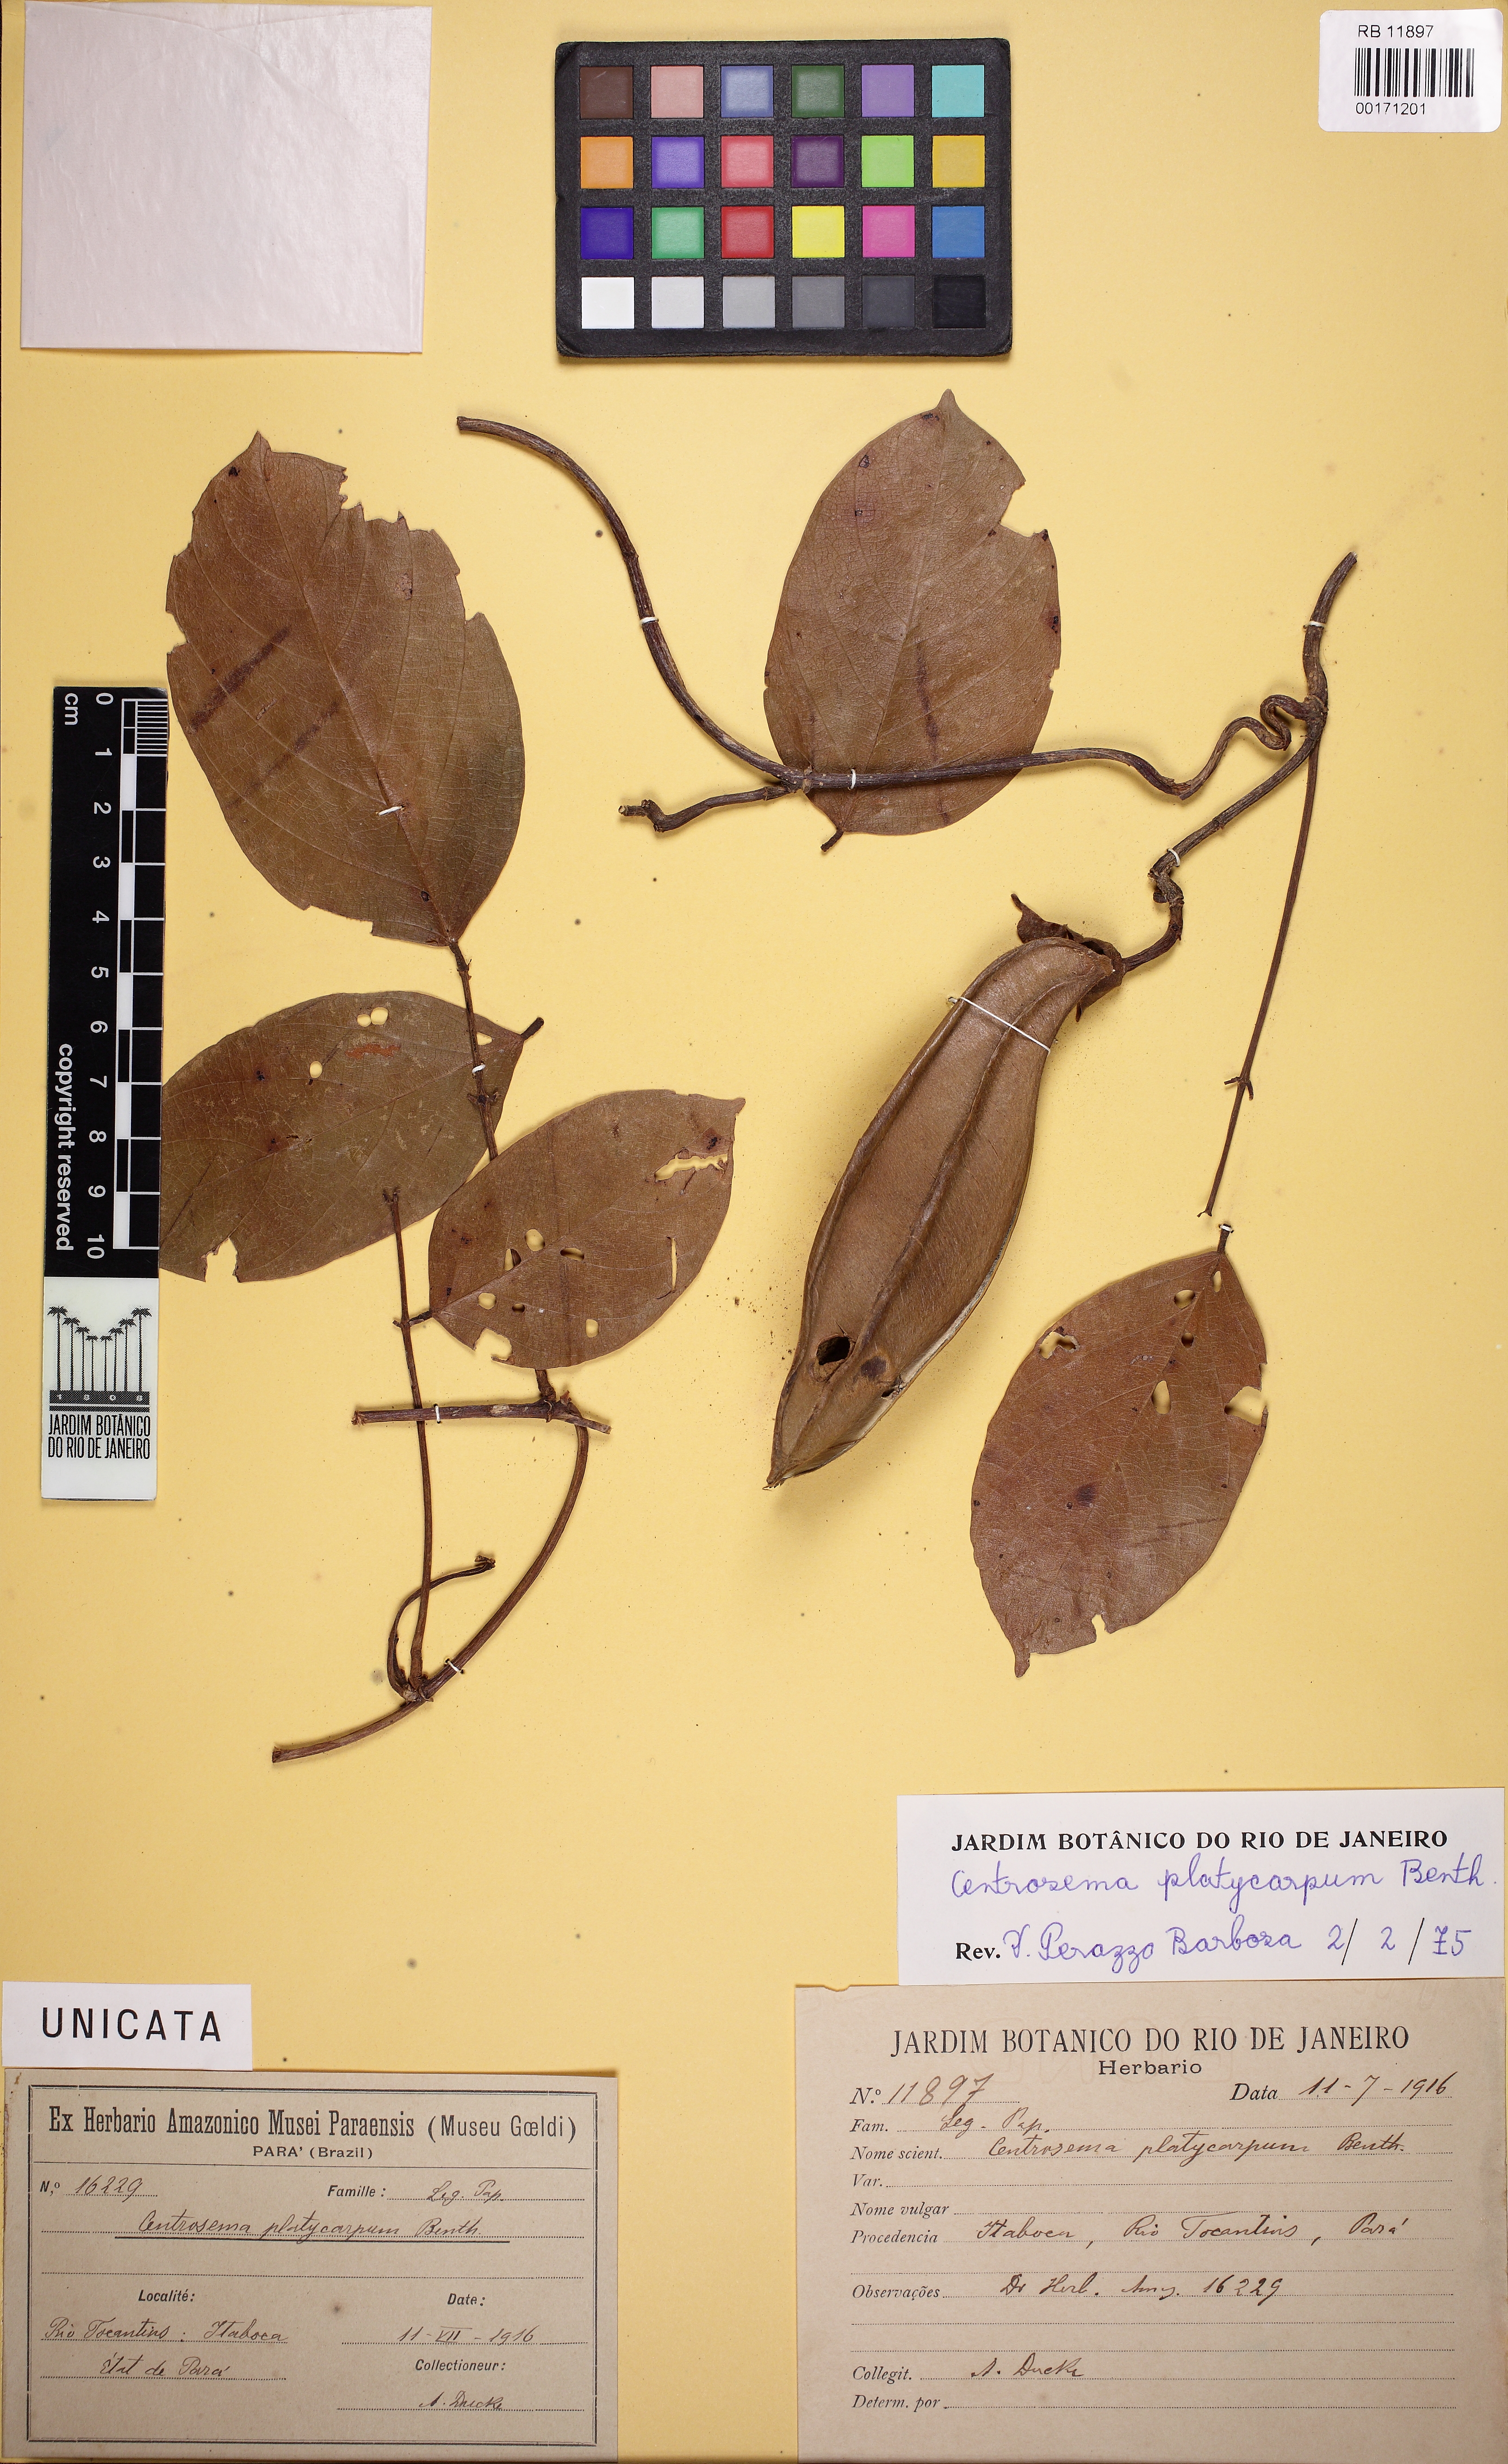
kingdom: Plantae
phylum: Tracheophyta
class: Magnoliopsida
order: Fabales
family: Fabaceae
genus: Centrosema
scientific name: Centrosema platycarpum
